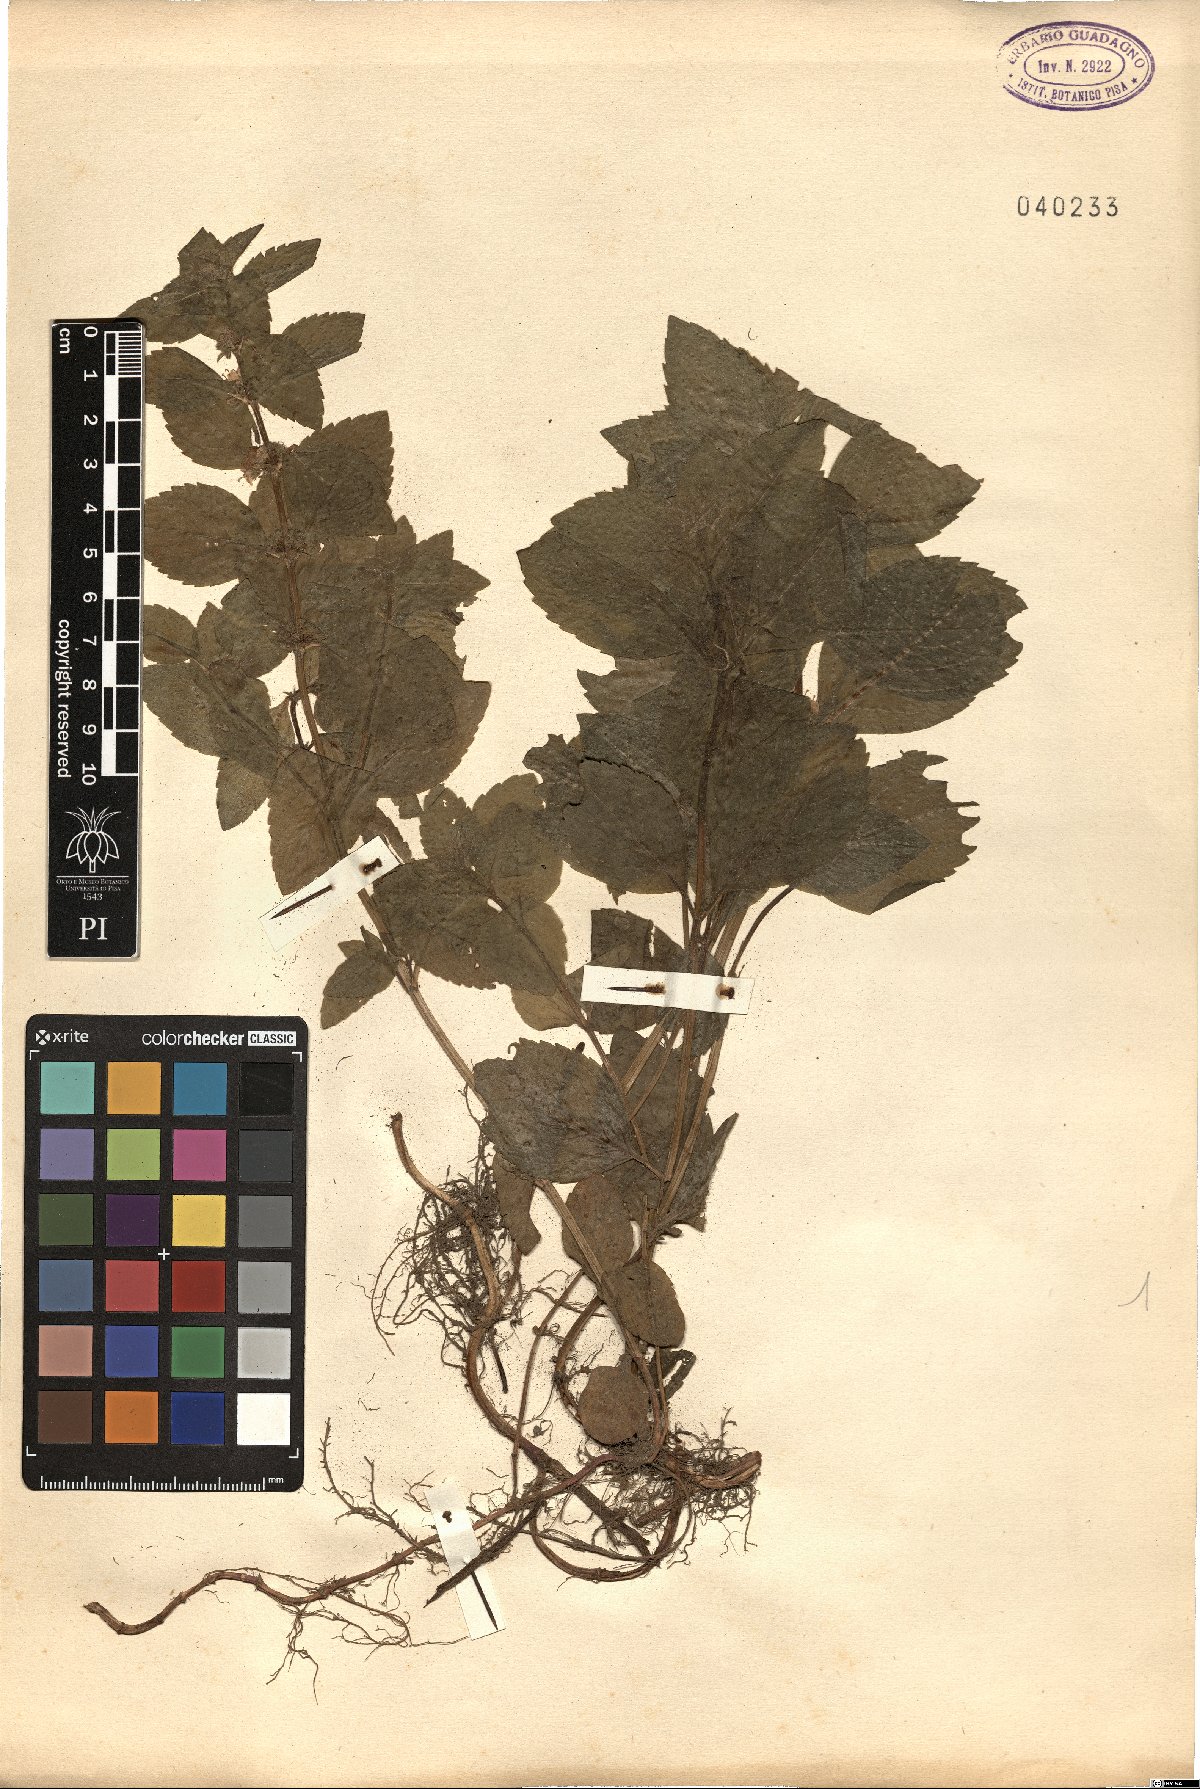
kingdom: Plantae
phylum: Tracheophyta
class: Magnoliopsida
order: Lamiales
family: Lamiaceae
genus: Mentha
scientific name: Mentha
